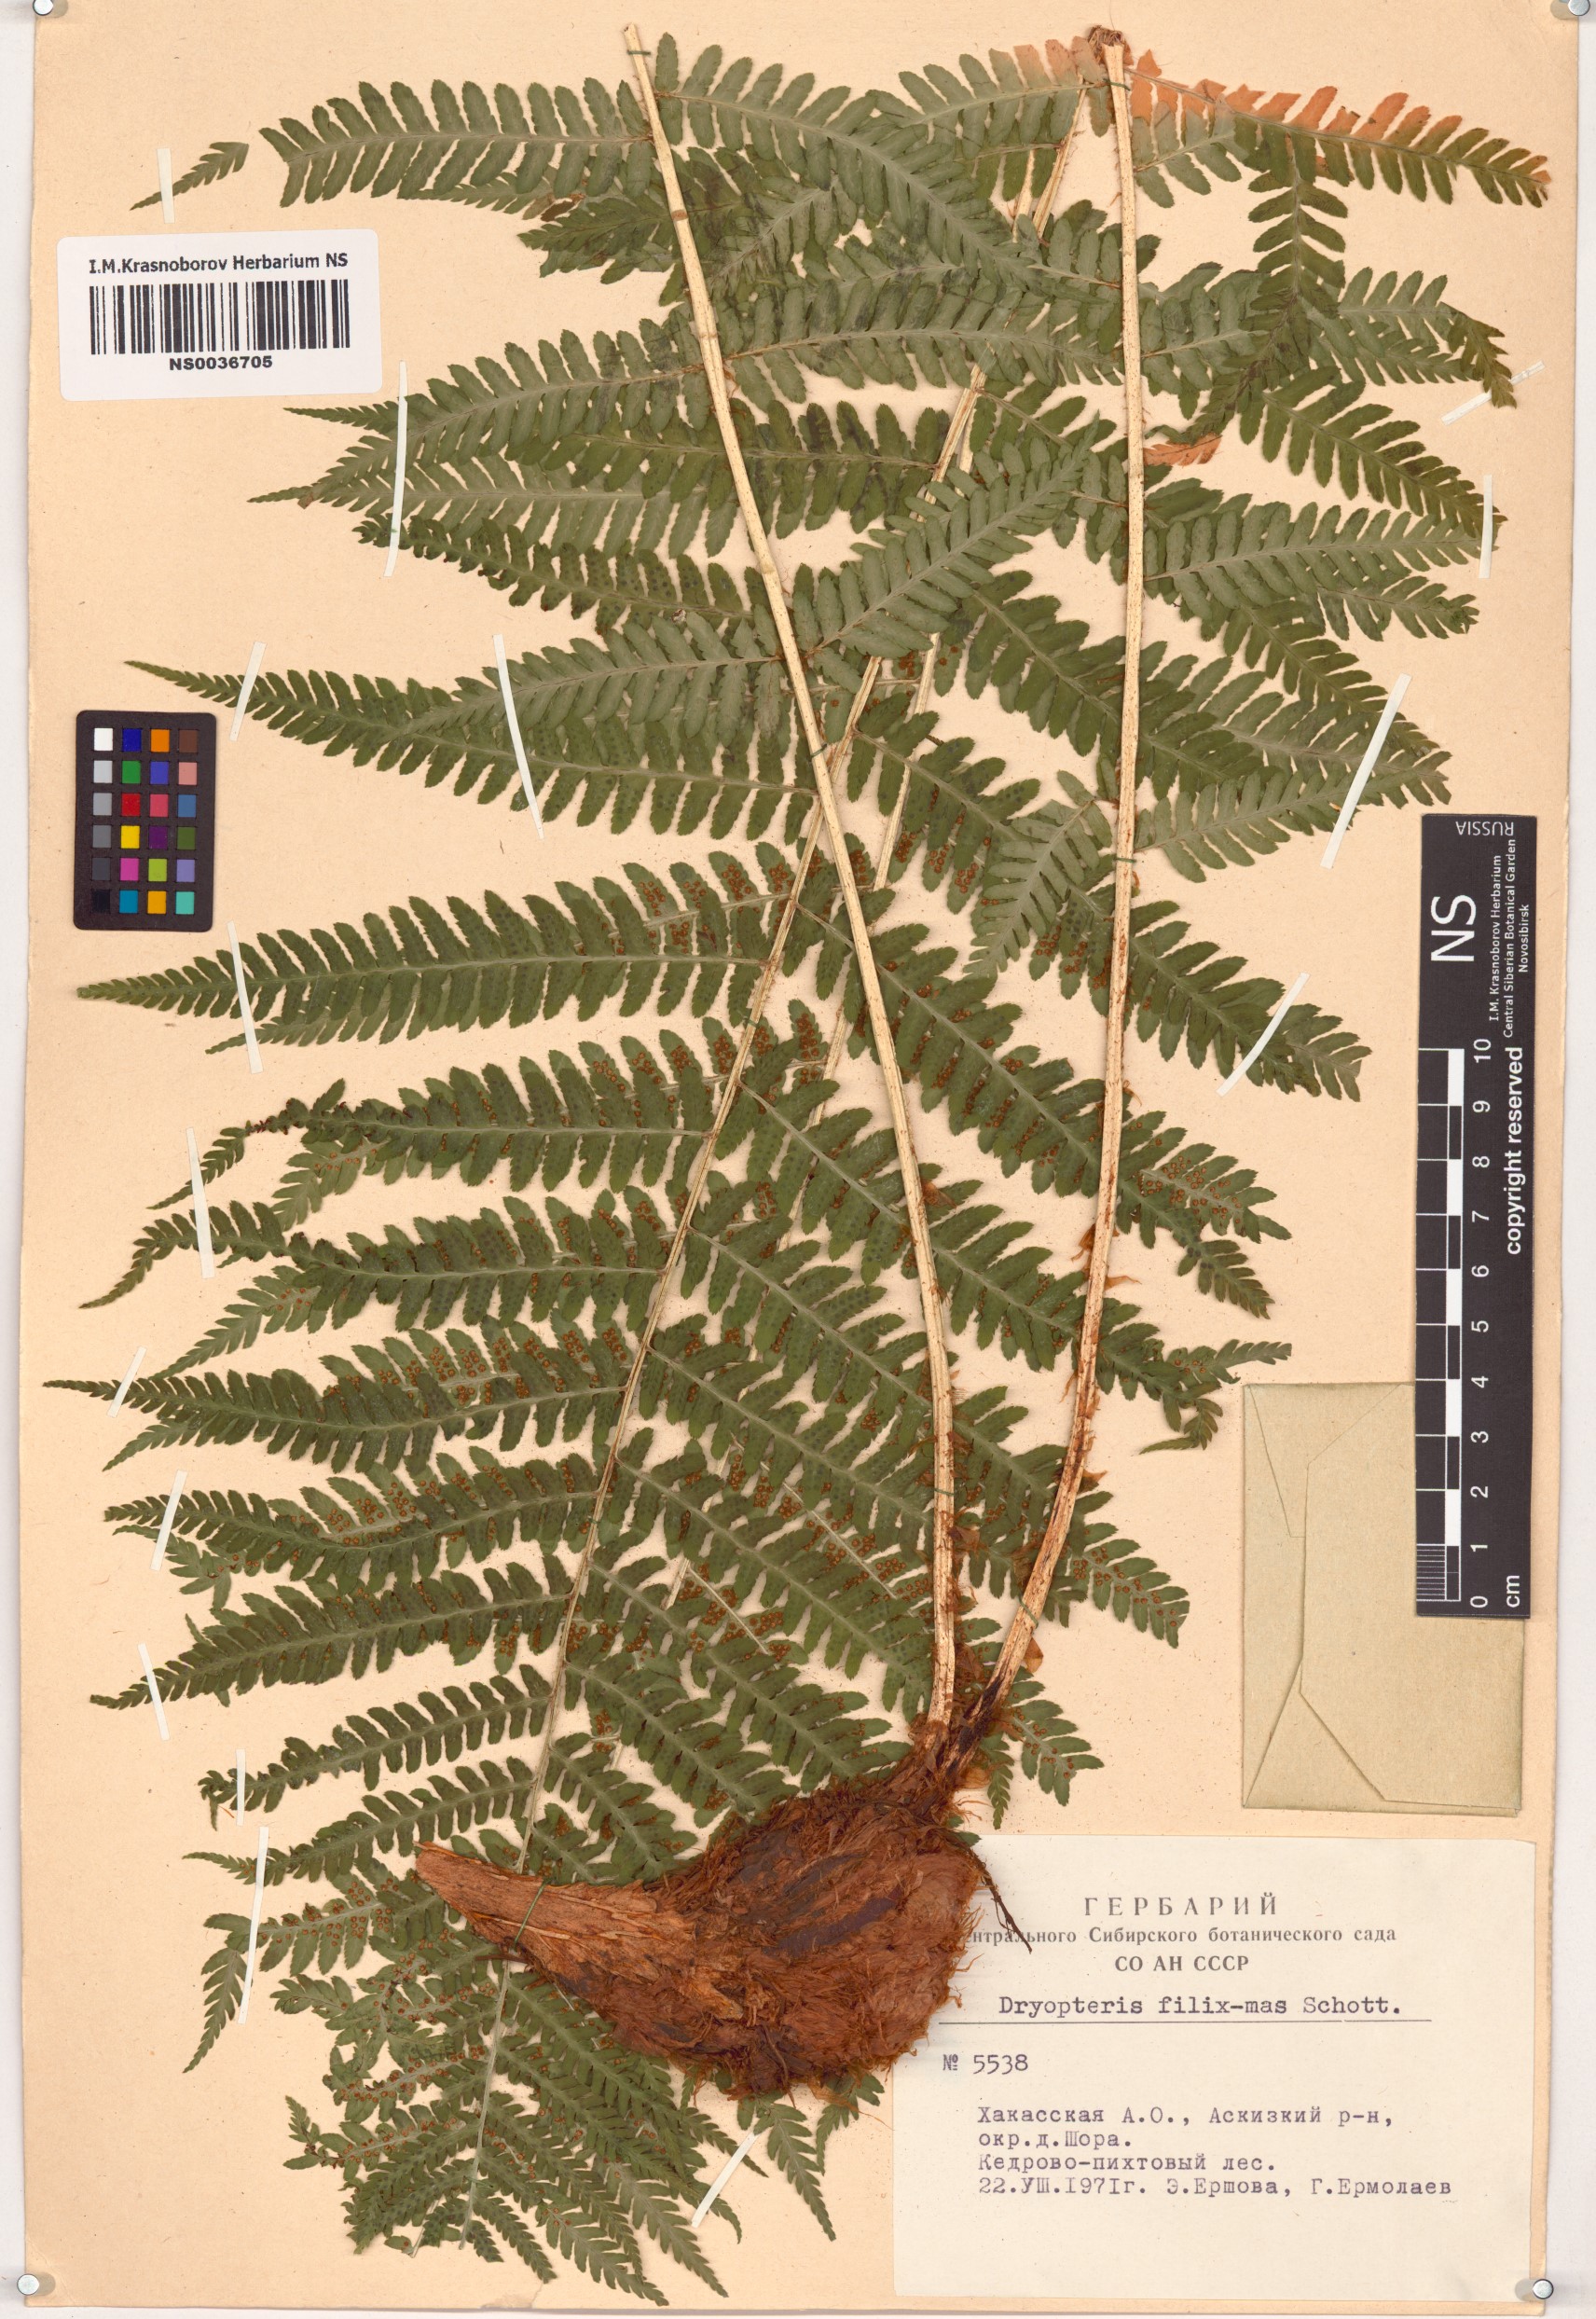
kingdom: Plantae
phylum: Tracheophyta
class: Polypodiopsida
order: Polypodiales
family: Dryopteridaceae
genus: Dryopteris
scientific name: Dryopteris filix-mas
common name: Male fern
